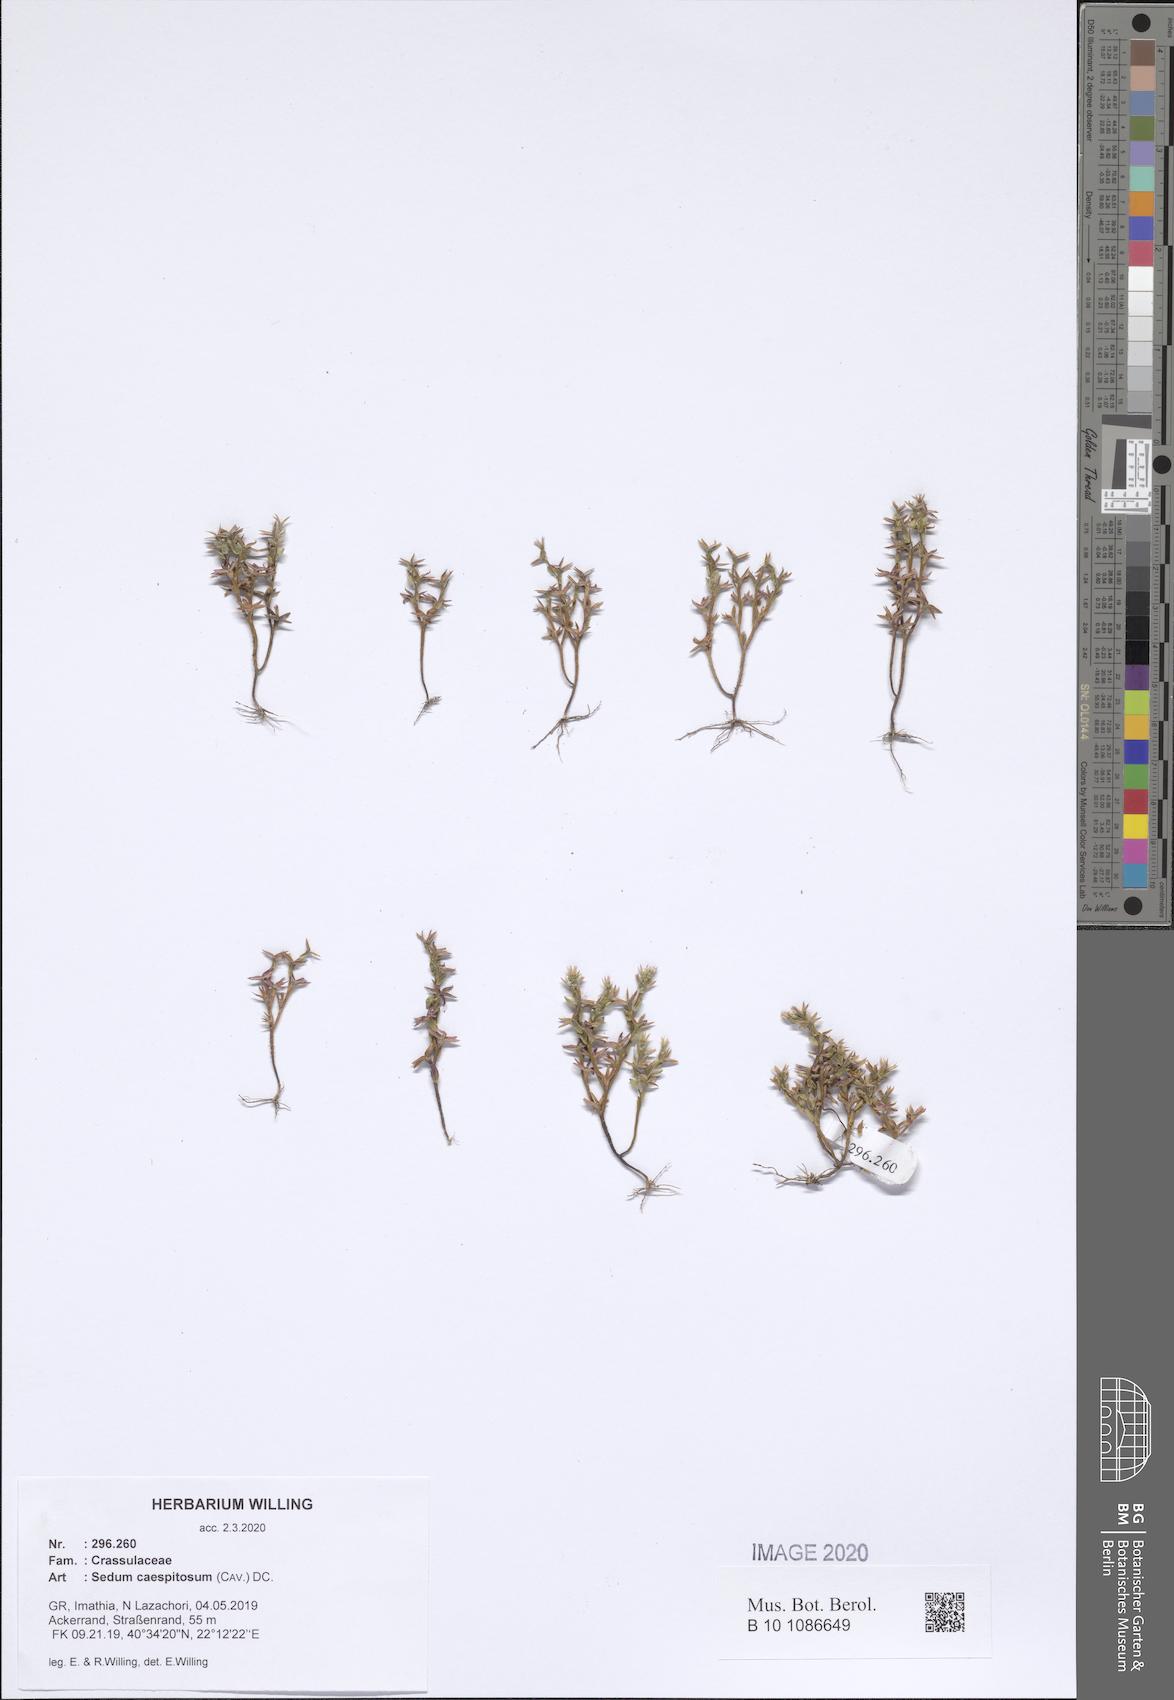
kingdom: Plantae
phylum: Tracheophyta
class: Magnoliopsida
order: Saxifragales
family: Crassulaceae
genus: Sedum
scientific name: Sedum cespitosum
